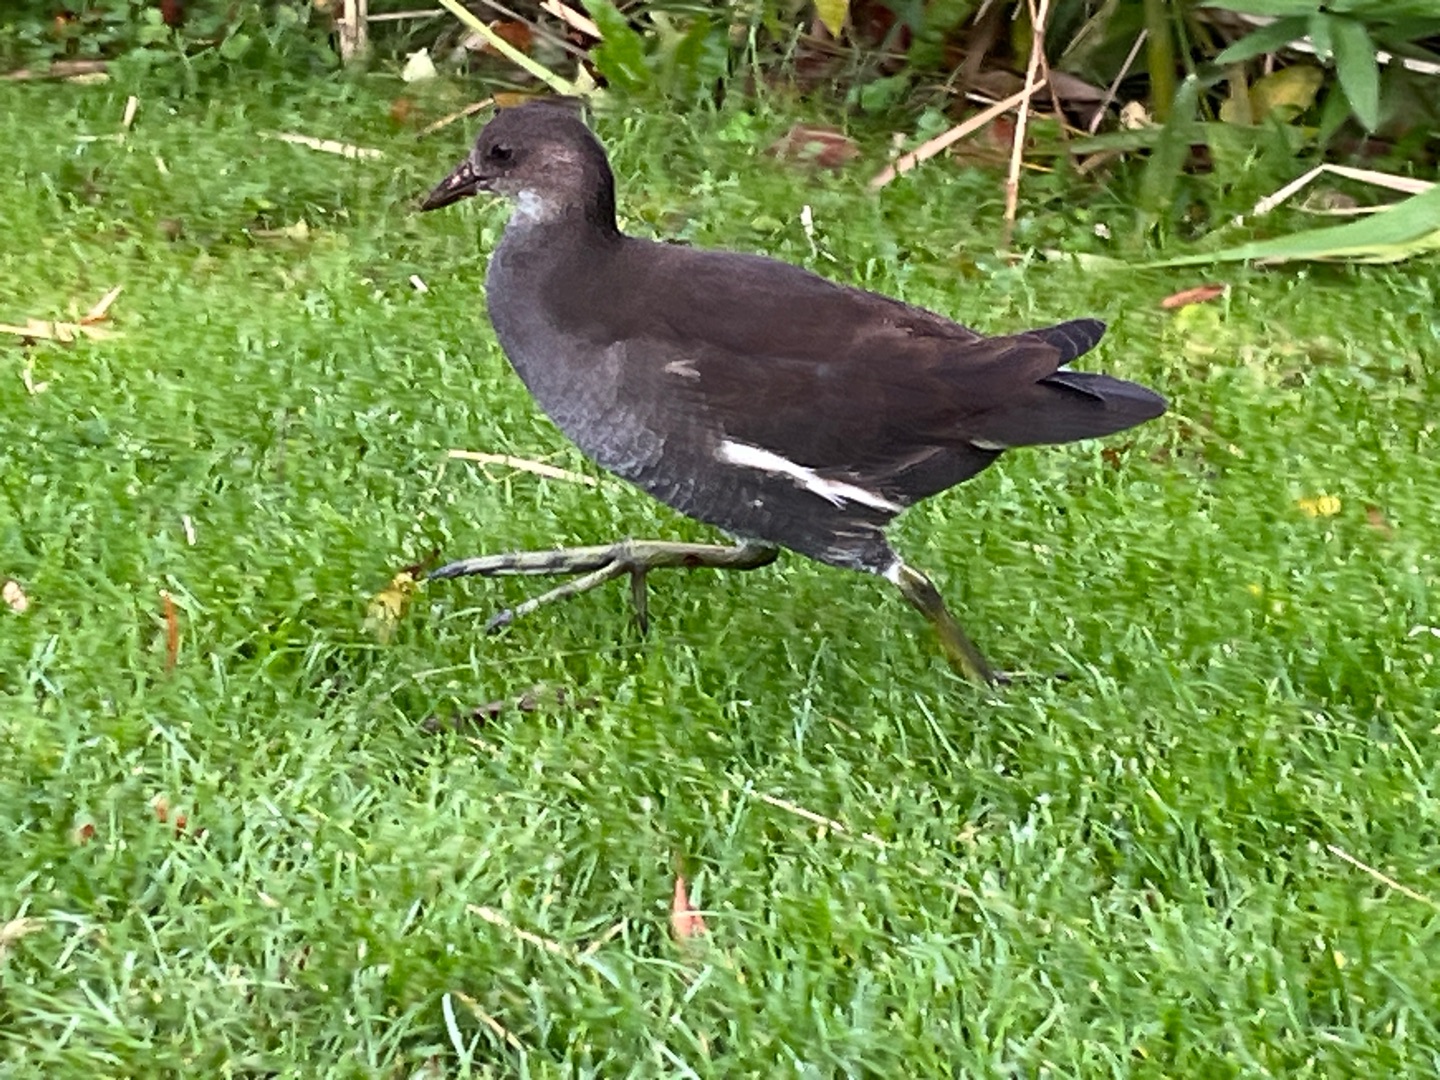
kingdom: Animalia
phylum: Chordata
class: Aves
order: Gruiformes
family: Rallidae
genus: Gallinula
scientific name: Gallinula chloropus
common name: Grønbenet rørhøne
